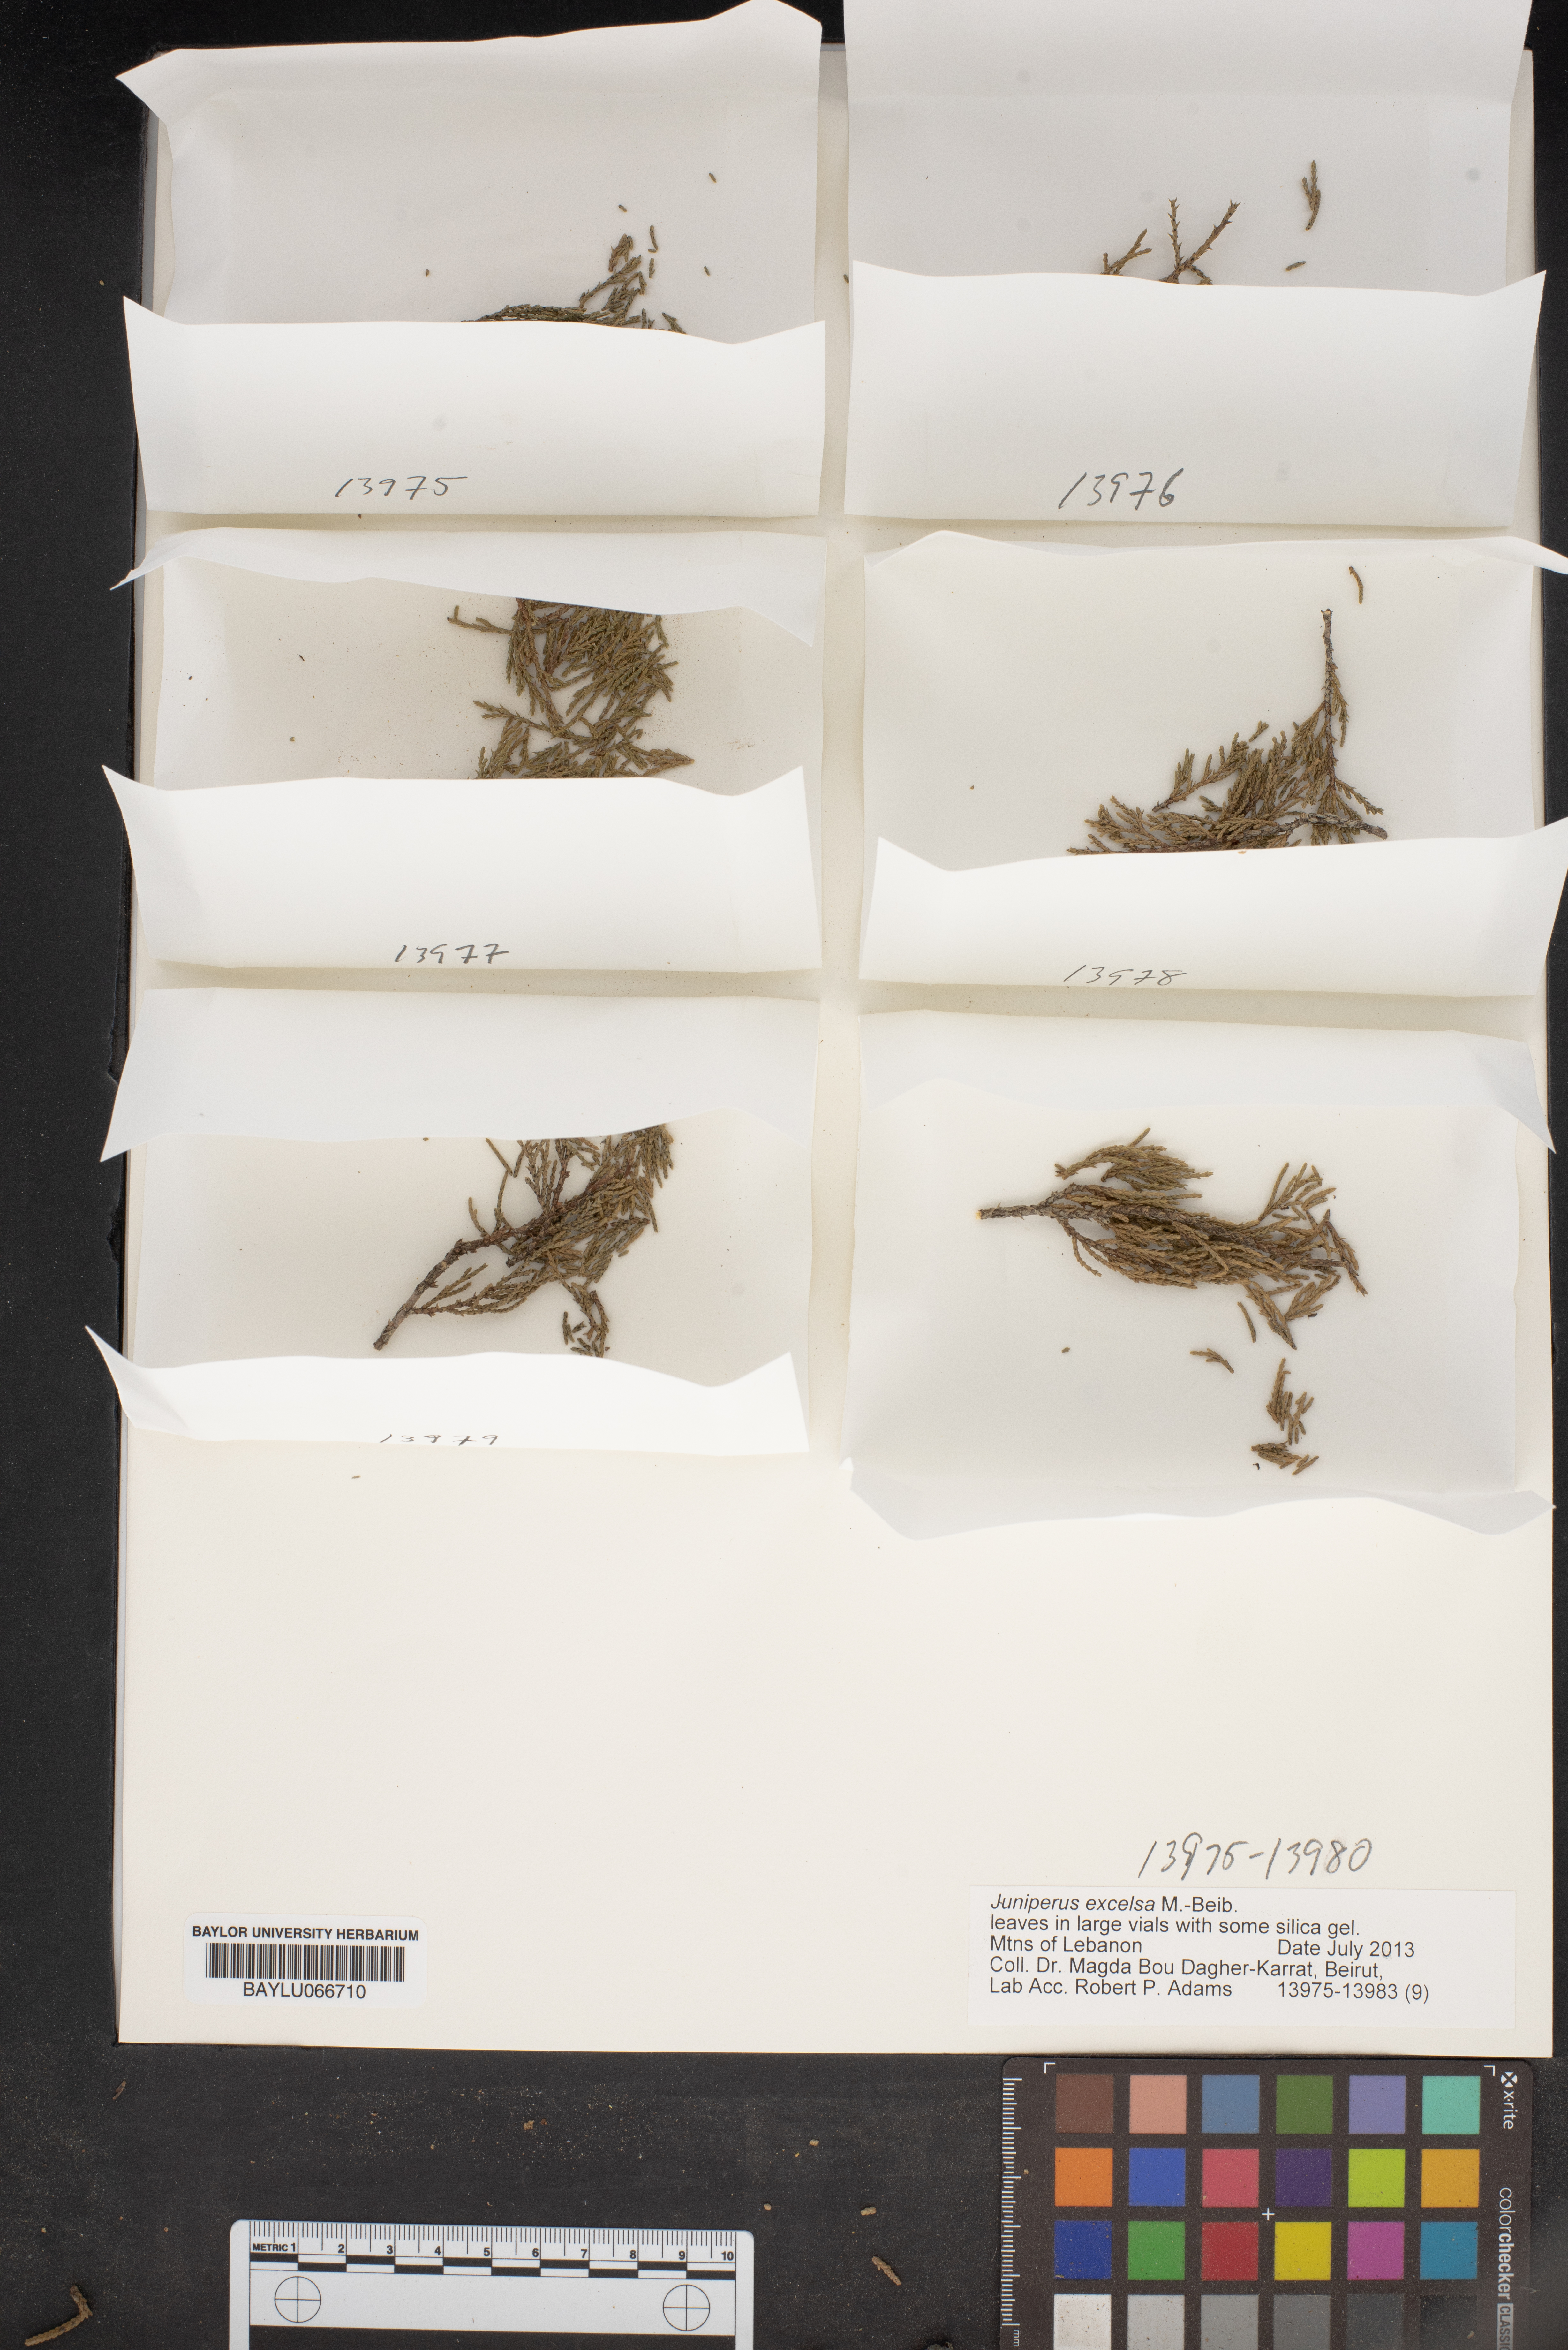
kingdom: Plantae
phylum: Tracheophyta
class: Pinopsida
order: Pinales
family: Cupressaceae
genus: Juniperus
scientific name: Juniperus excelsa
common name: Crimean juniper
